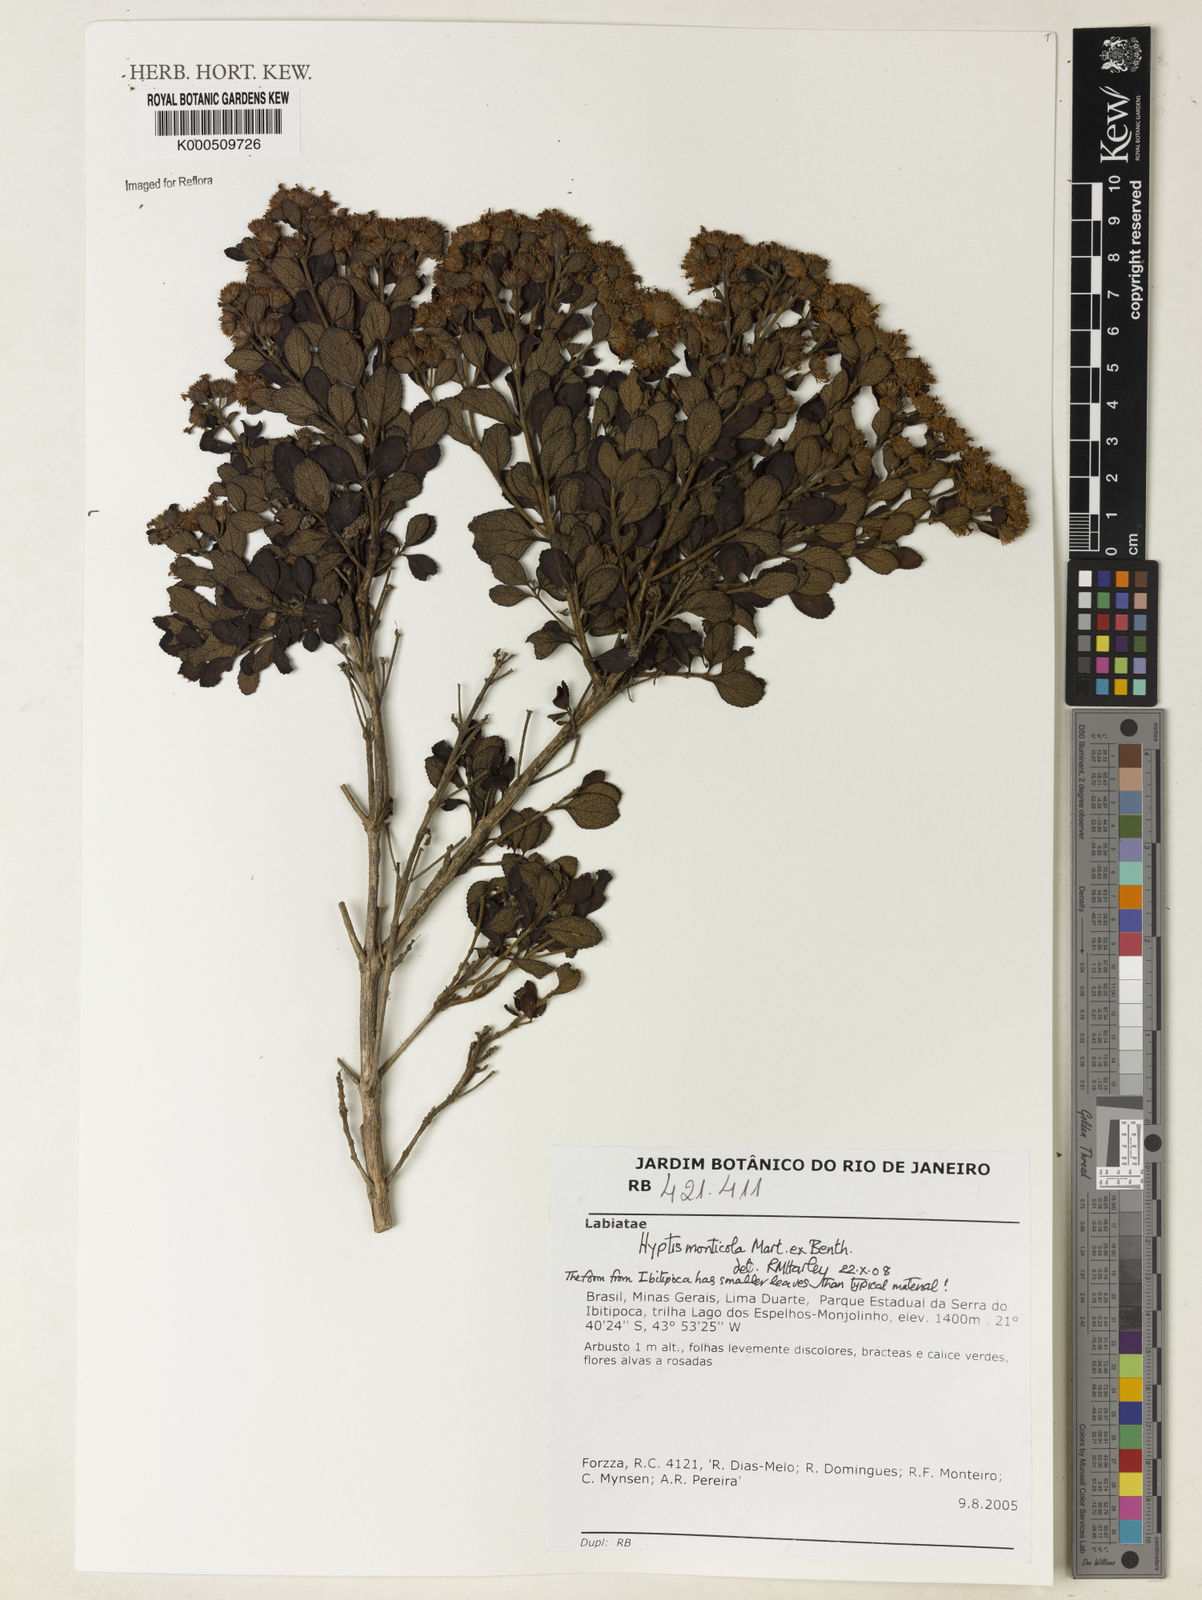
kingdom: Plantae
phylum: Tracheophyta
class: Magnoliopsida
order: Lamiales
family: Lamiaceae
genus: Hyptis
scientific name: Hyptis monticola
